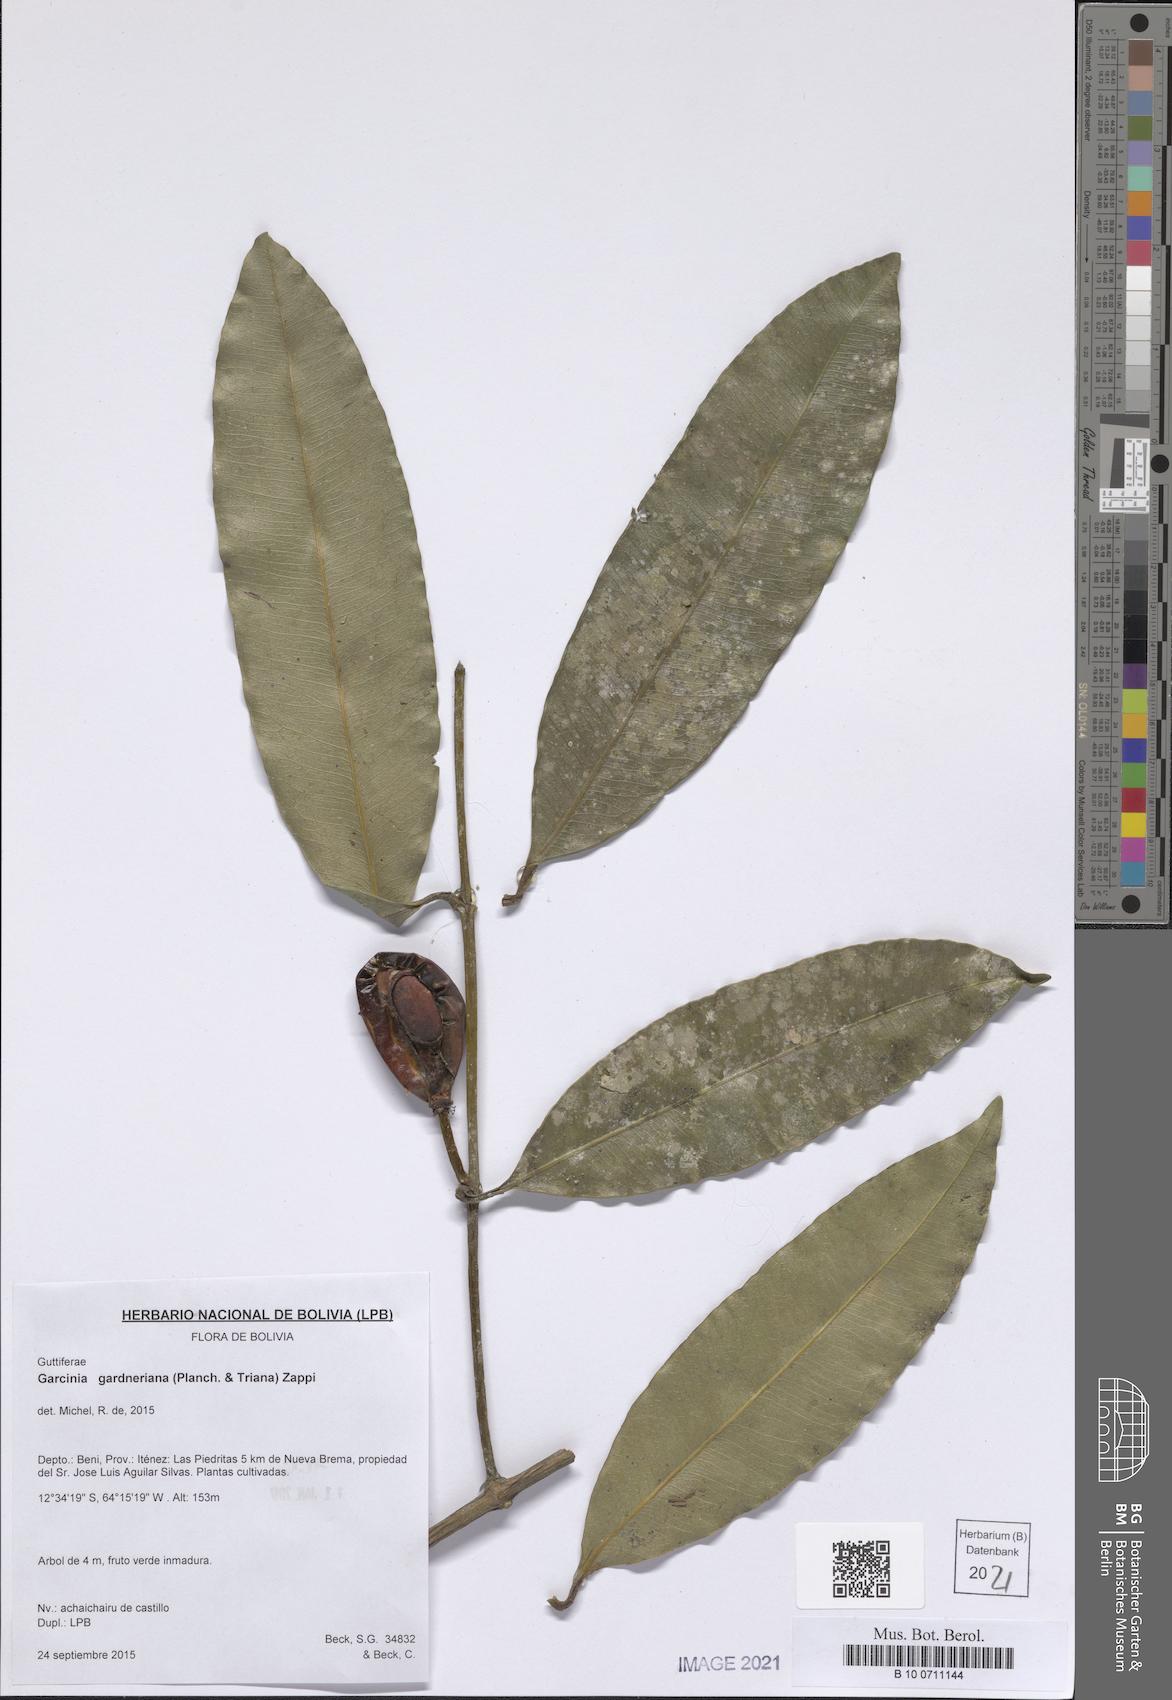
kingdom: Plantae
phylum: Tracheophyta
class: Magnoliopsida
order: Malpighiales
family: Clusiaceae
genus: Garcinia
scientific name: Garcinia gardneriana
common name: Achacha
